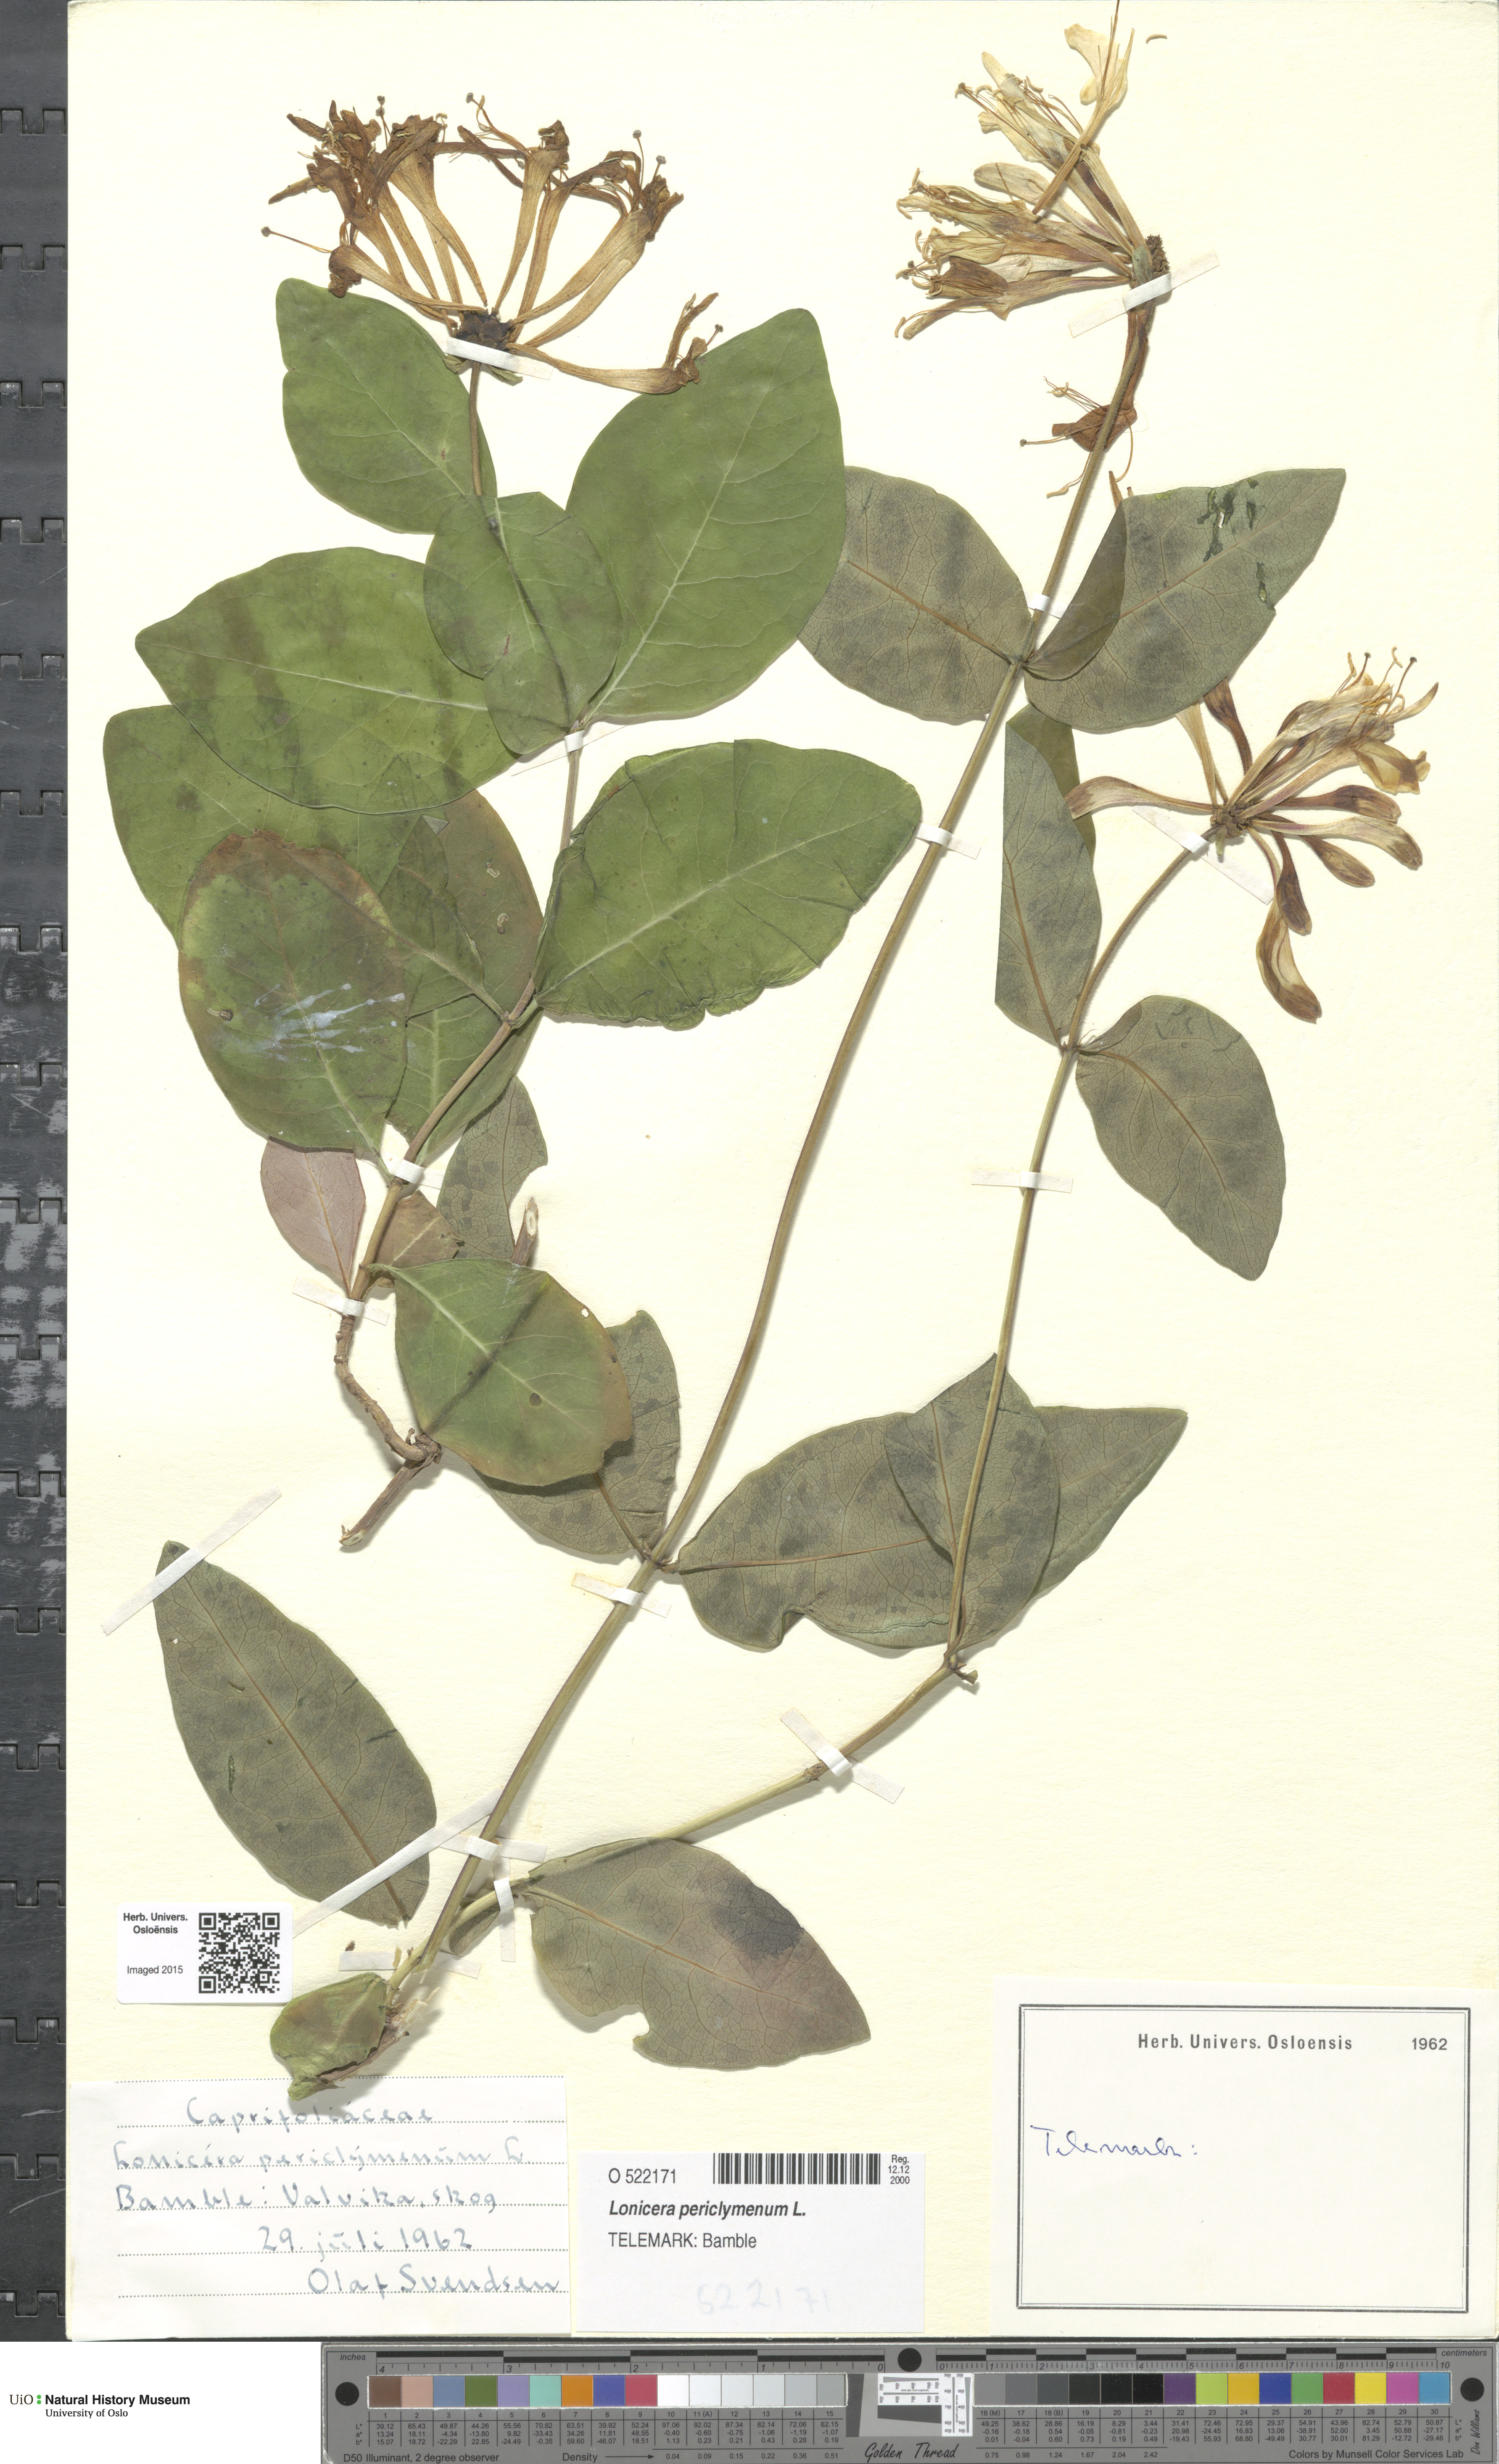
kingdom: Plantae
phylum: Tracheophyta
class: Magnoliopsida
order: Dipsacales
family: Caprifoliaceae
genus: Lonicera
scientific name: Lonicera periclymenum
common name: European honeysuckle
